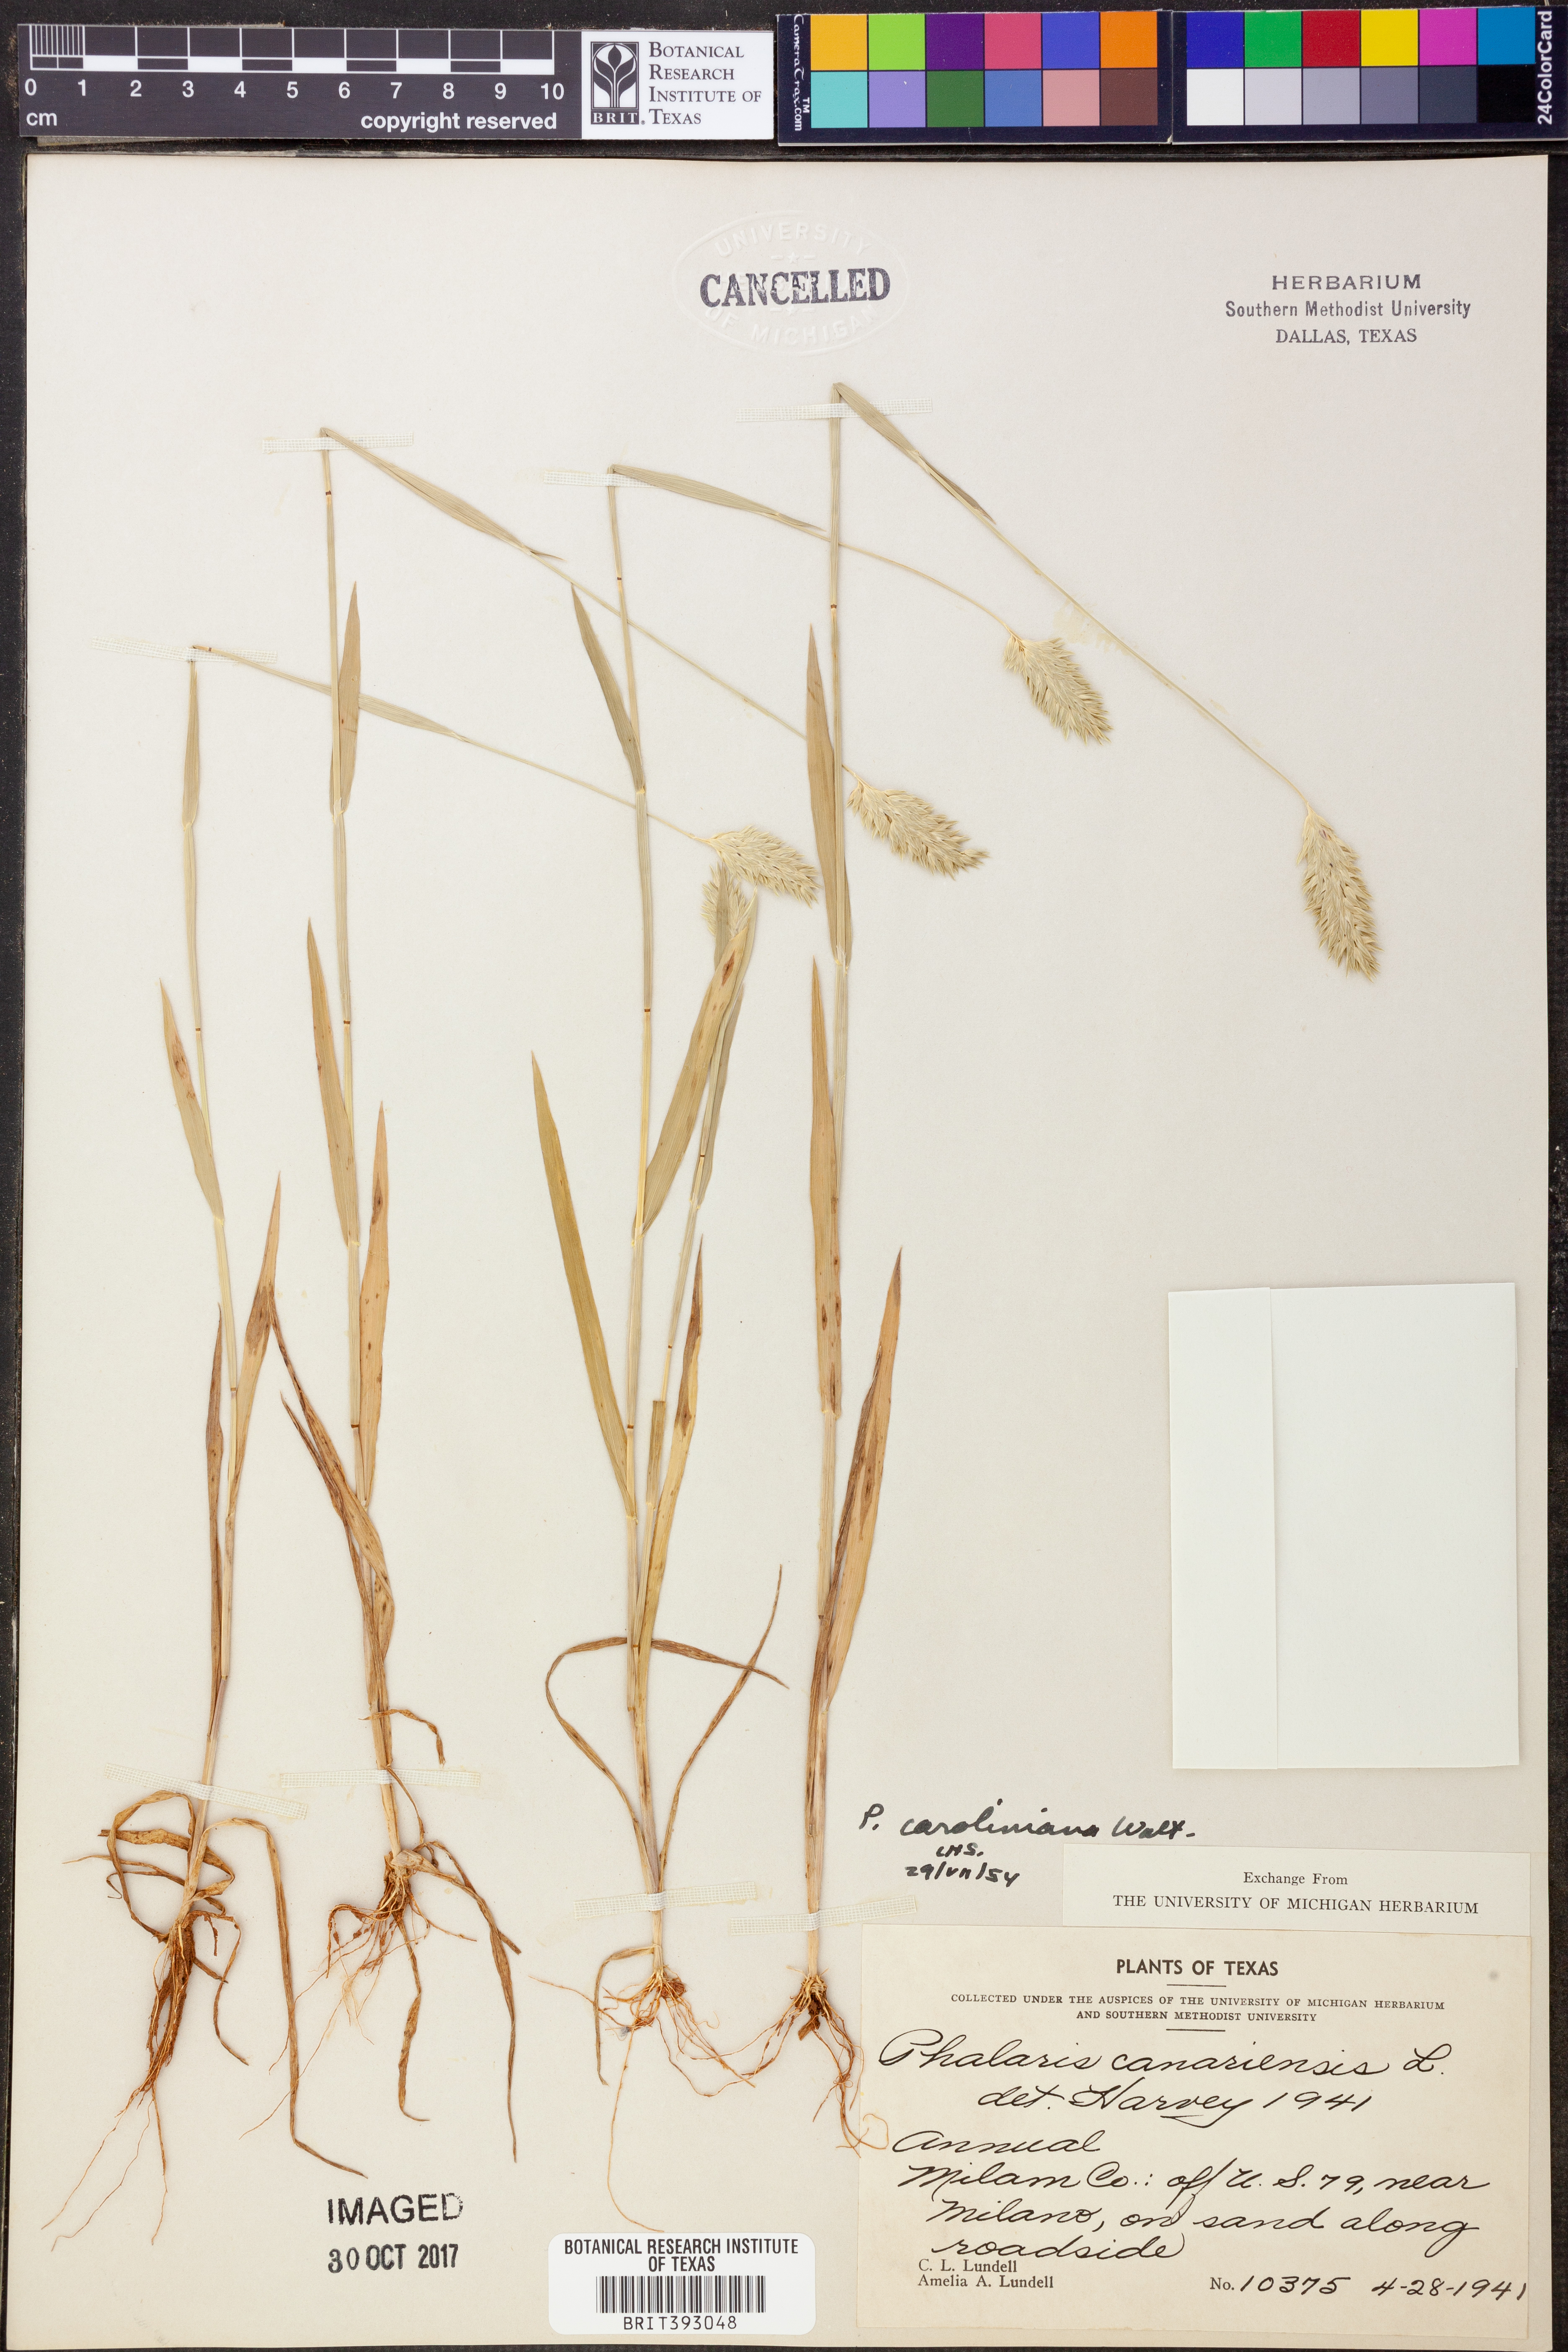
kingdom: Plantae
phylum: Tracheophyta
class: Liliopsida
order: Poales
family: Poaceae
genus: Phalaris
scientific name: Phalaris caroliniana
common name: May grass
